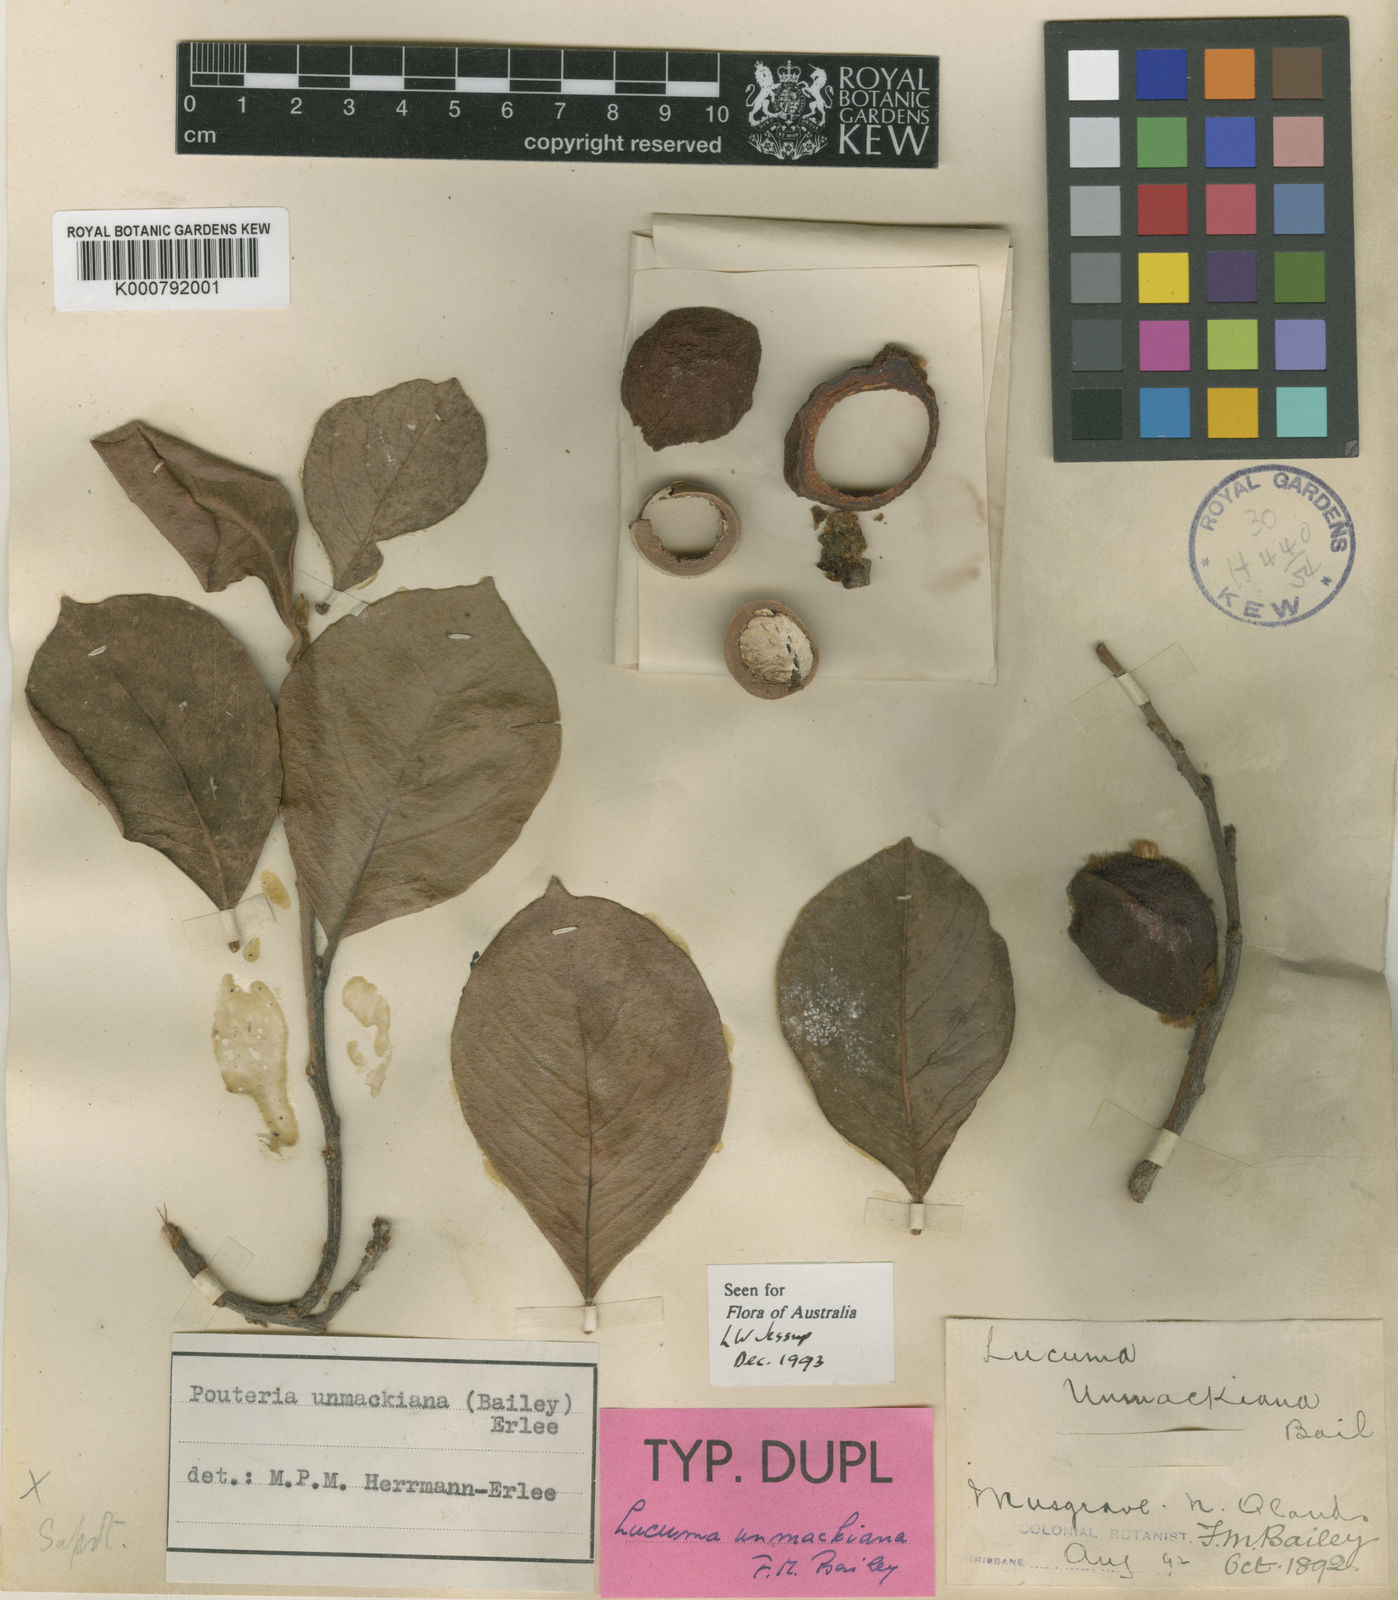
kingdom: Plantae
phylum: Tracheophyta
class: Magnoliopsida
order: Ericales
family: Sapotaceae
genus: Sersalisia
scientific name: Sersalisia unmackiana
